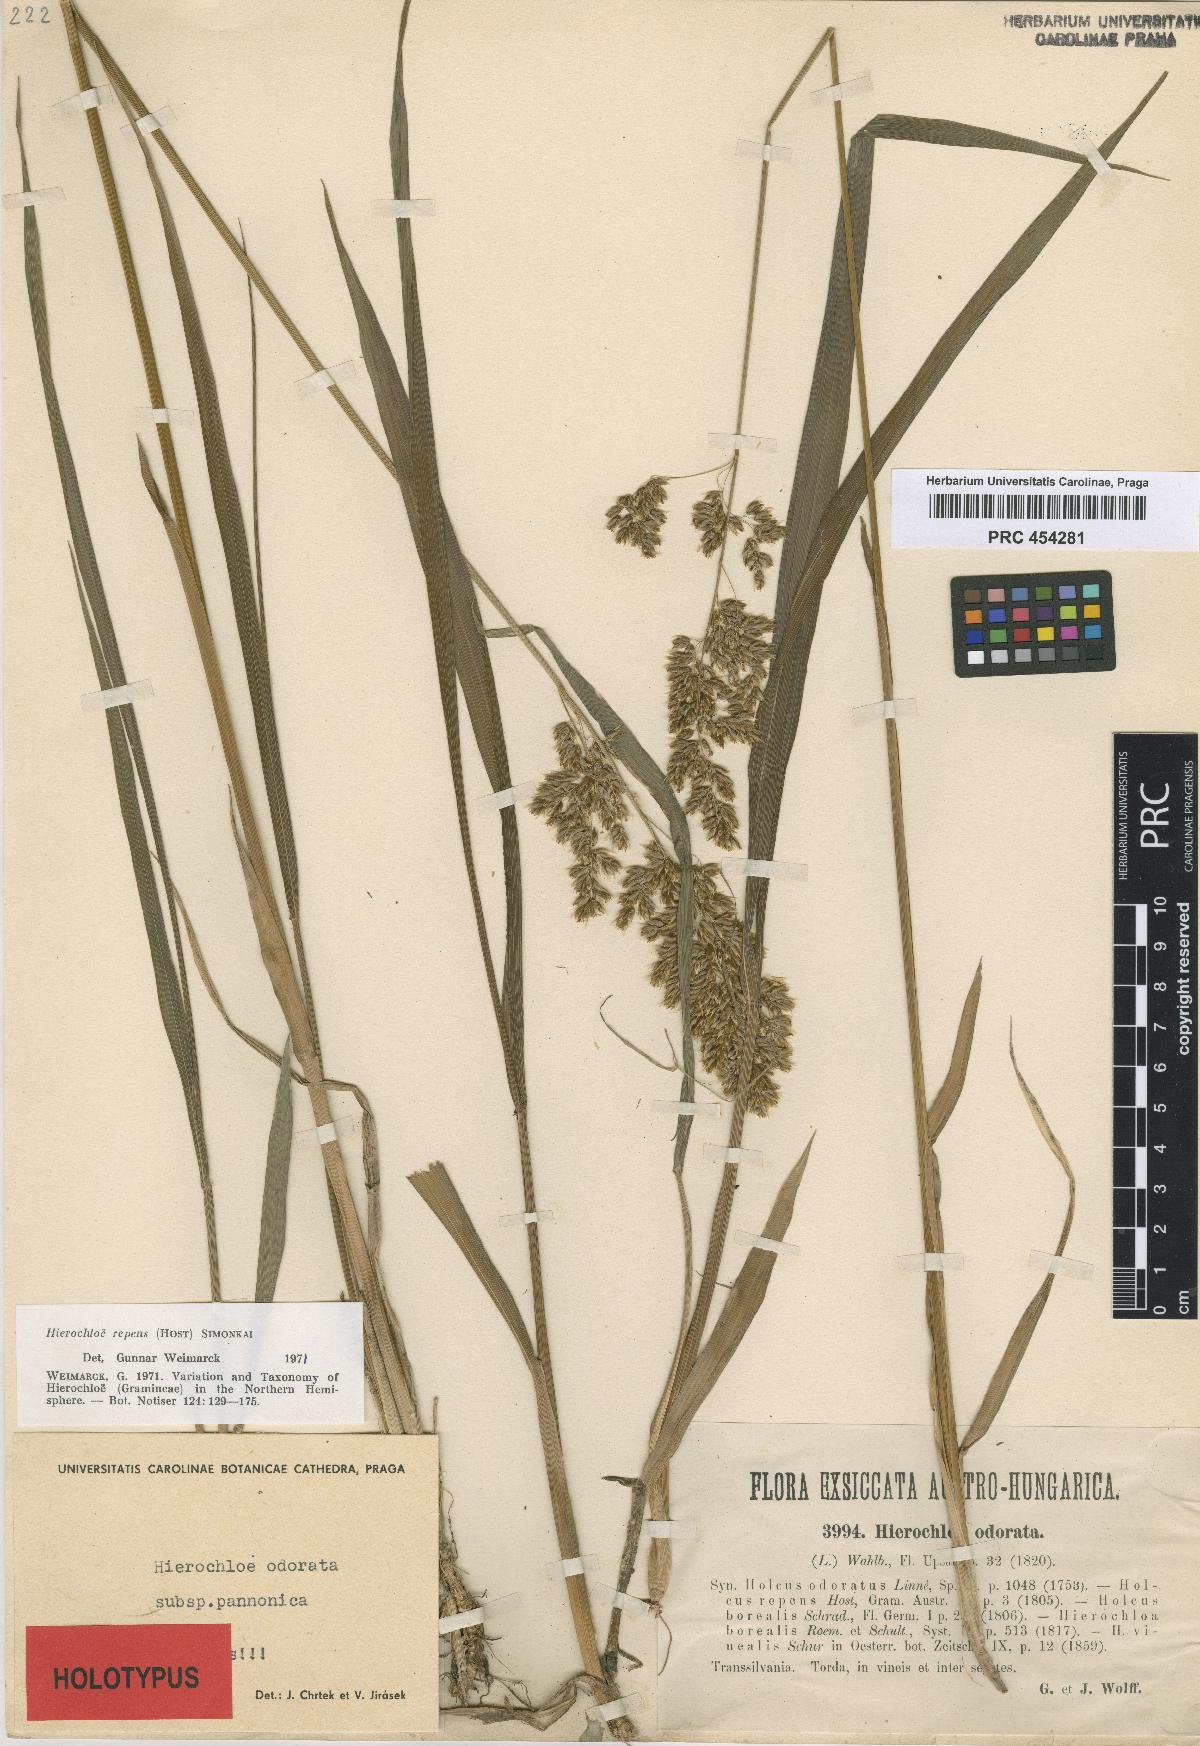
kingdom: Plantae
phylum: Tracheophyta
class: Liliopsida
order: Poales
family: Poaceae
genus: Anthoxanthum
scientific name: Anthoxanthum repens
